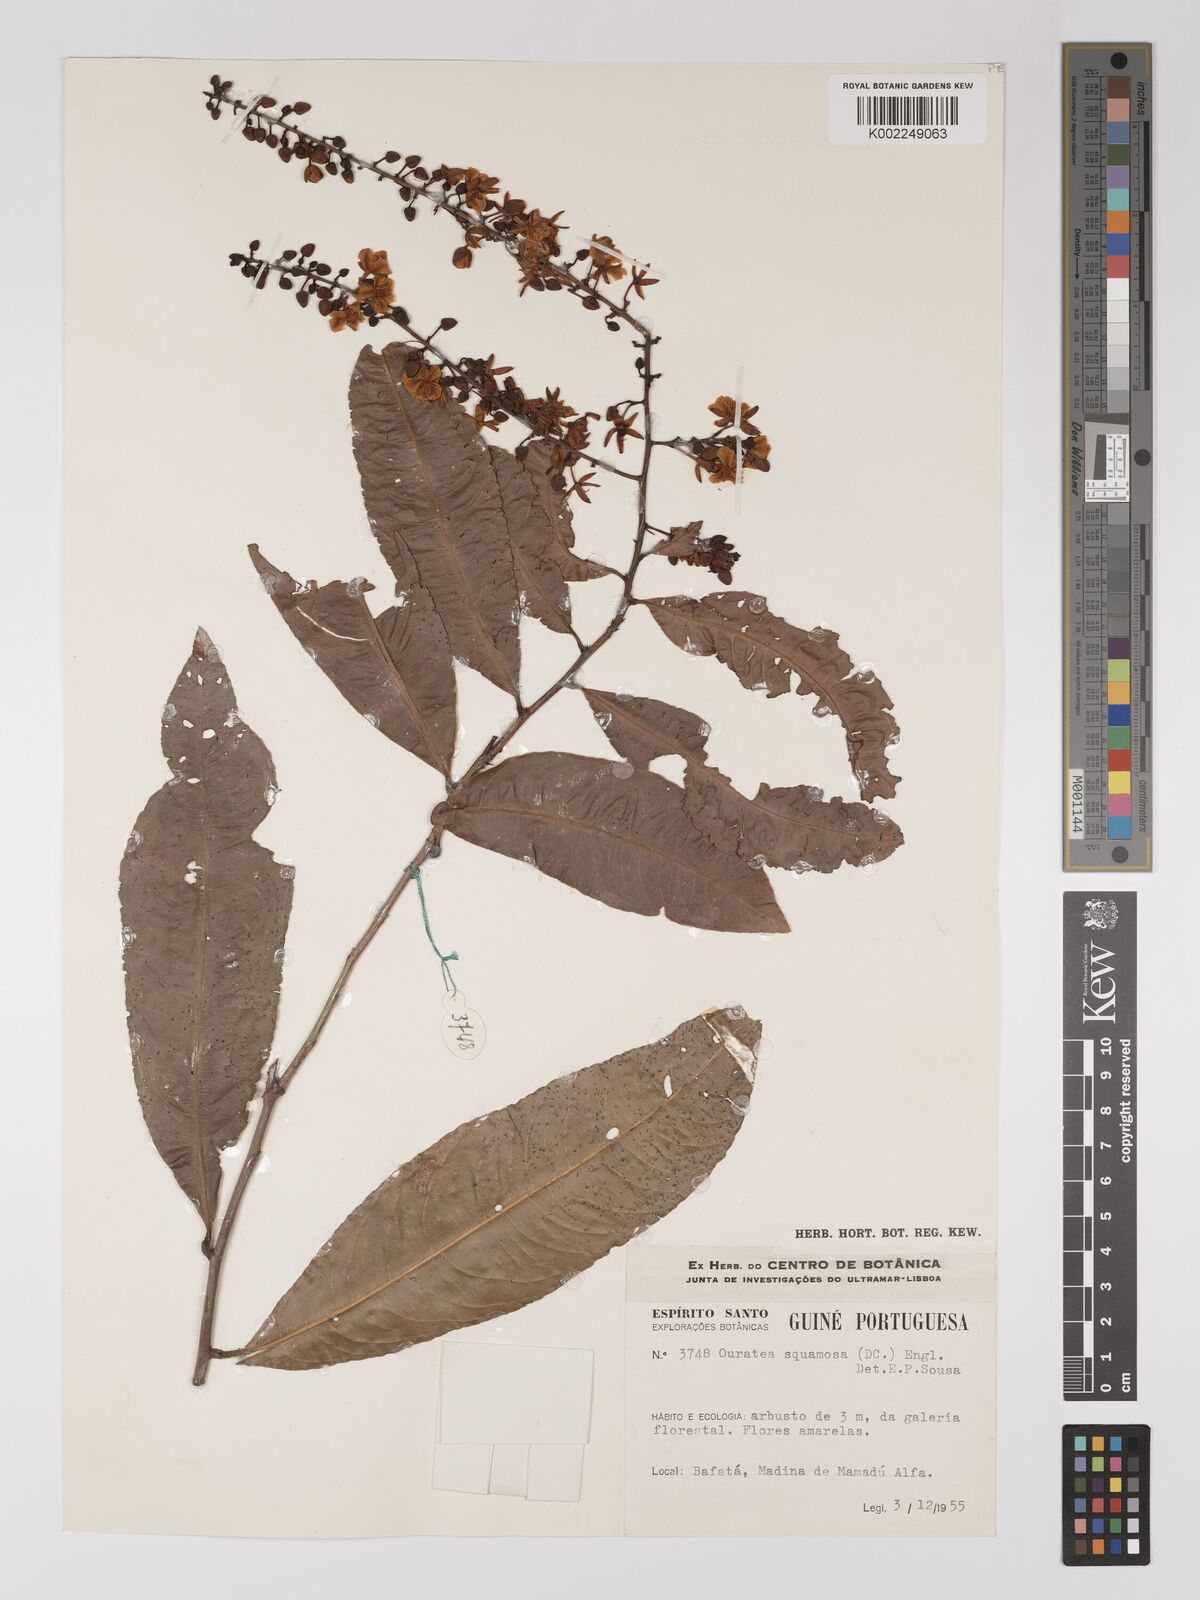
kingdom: Plantae
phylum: Tracheophyta
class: Magnoliopsida
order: Malpighiales
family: Ochnaceae
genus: Campylospermum
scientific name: Campylospermum squamosum
